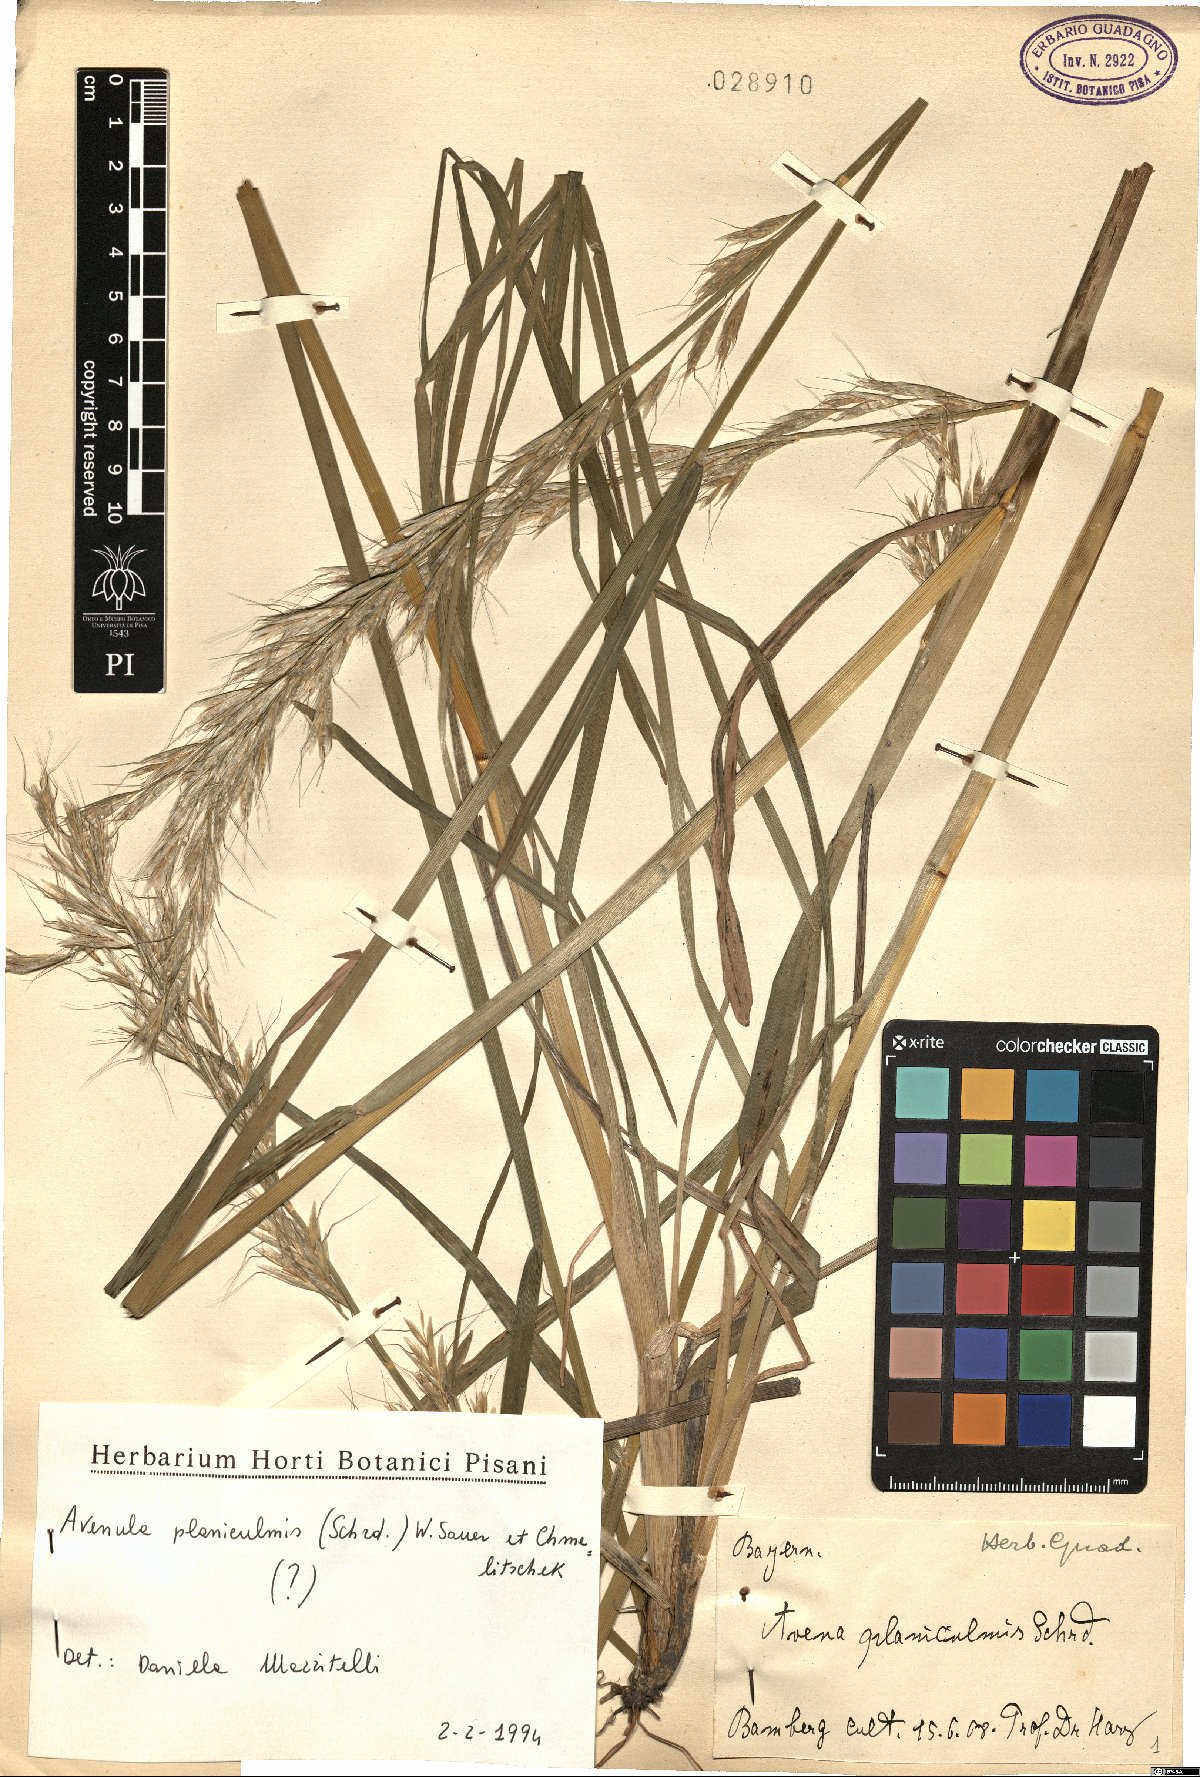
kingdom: Plantae
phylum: Tracheophyta
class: Liliopsida
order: Poales
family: Poaceae
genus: Helictochloa
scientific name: Helictochloa planiculmis
